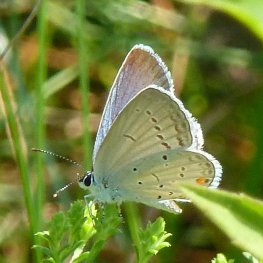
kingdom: Animalia
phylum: Arthropoda
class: Insecta
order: Lepidoptera
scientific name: Lepidoptera
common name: Butterflies
